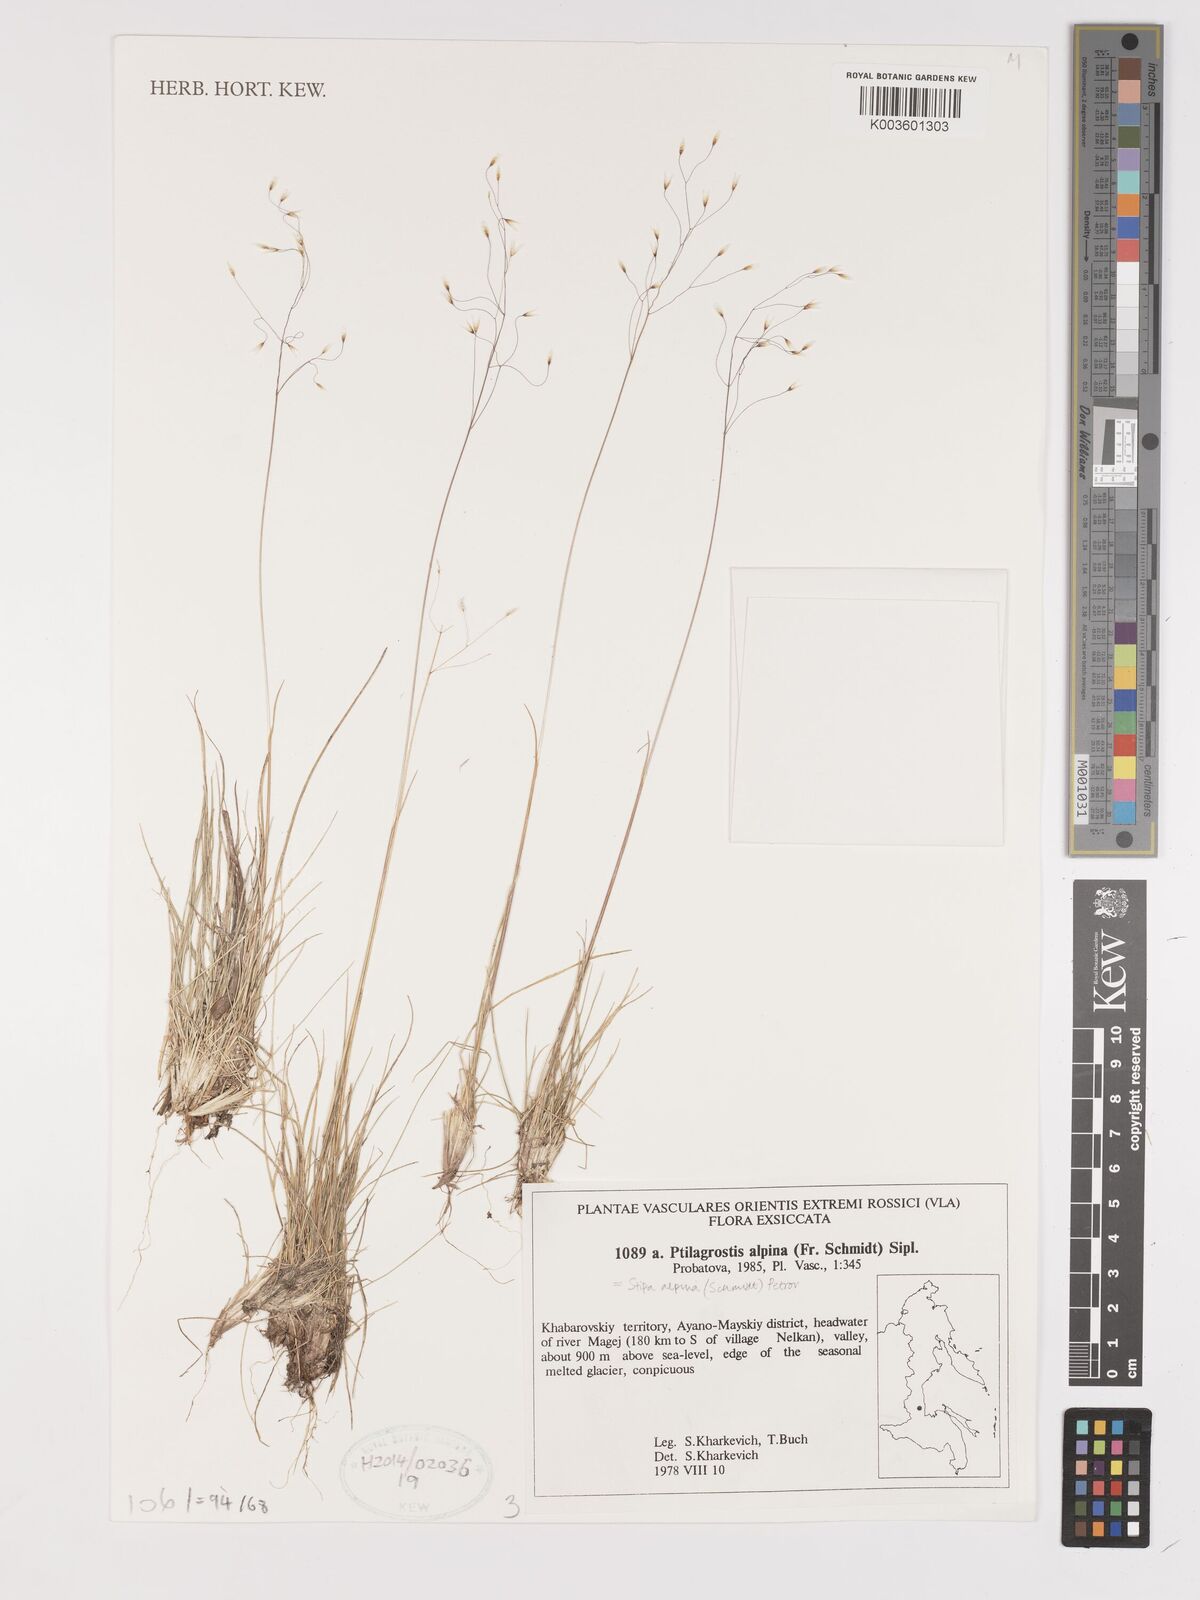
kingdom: Plantae
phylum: Tracheophyta
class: Liliopsida
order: Poales
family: Poaceae
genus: Ptilagrostis
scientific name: Ptilagrostis alpina
